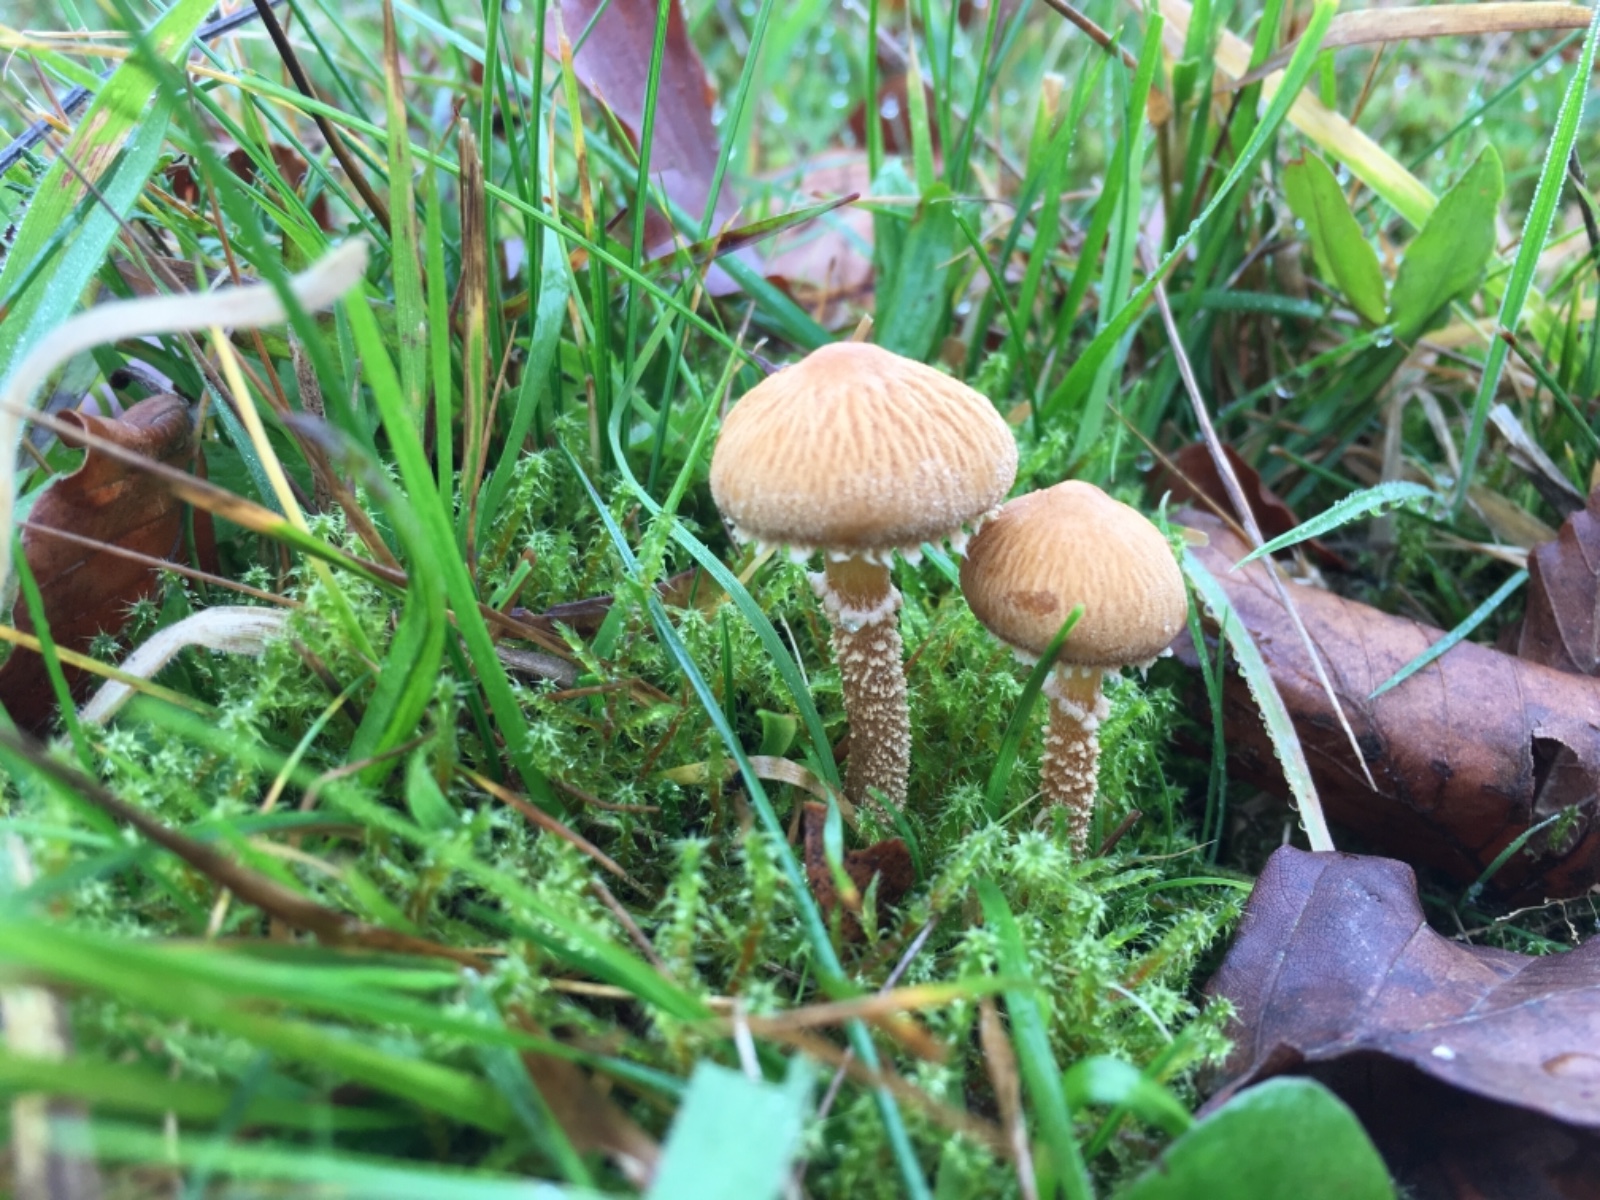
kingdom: Fungi
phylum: Basidiomycota
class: Agaricomycetes
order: Agaricales
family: Tricholomataceae
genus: Cystoderma
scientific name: Cystoderma amianthinum
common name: okkergul grynhat
